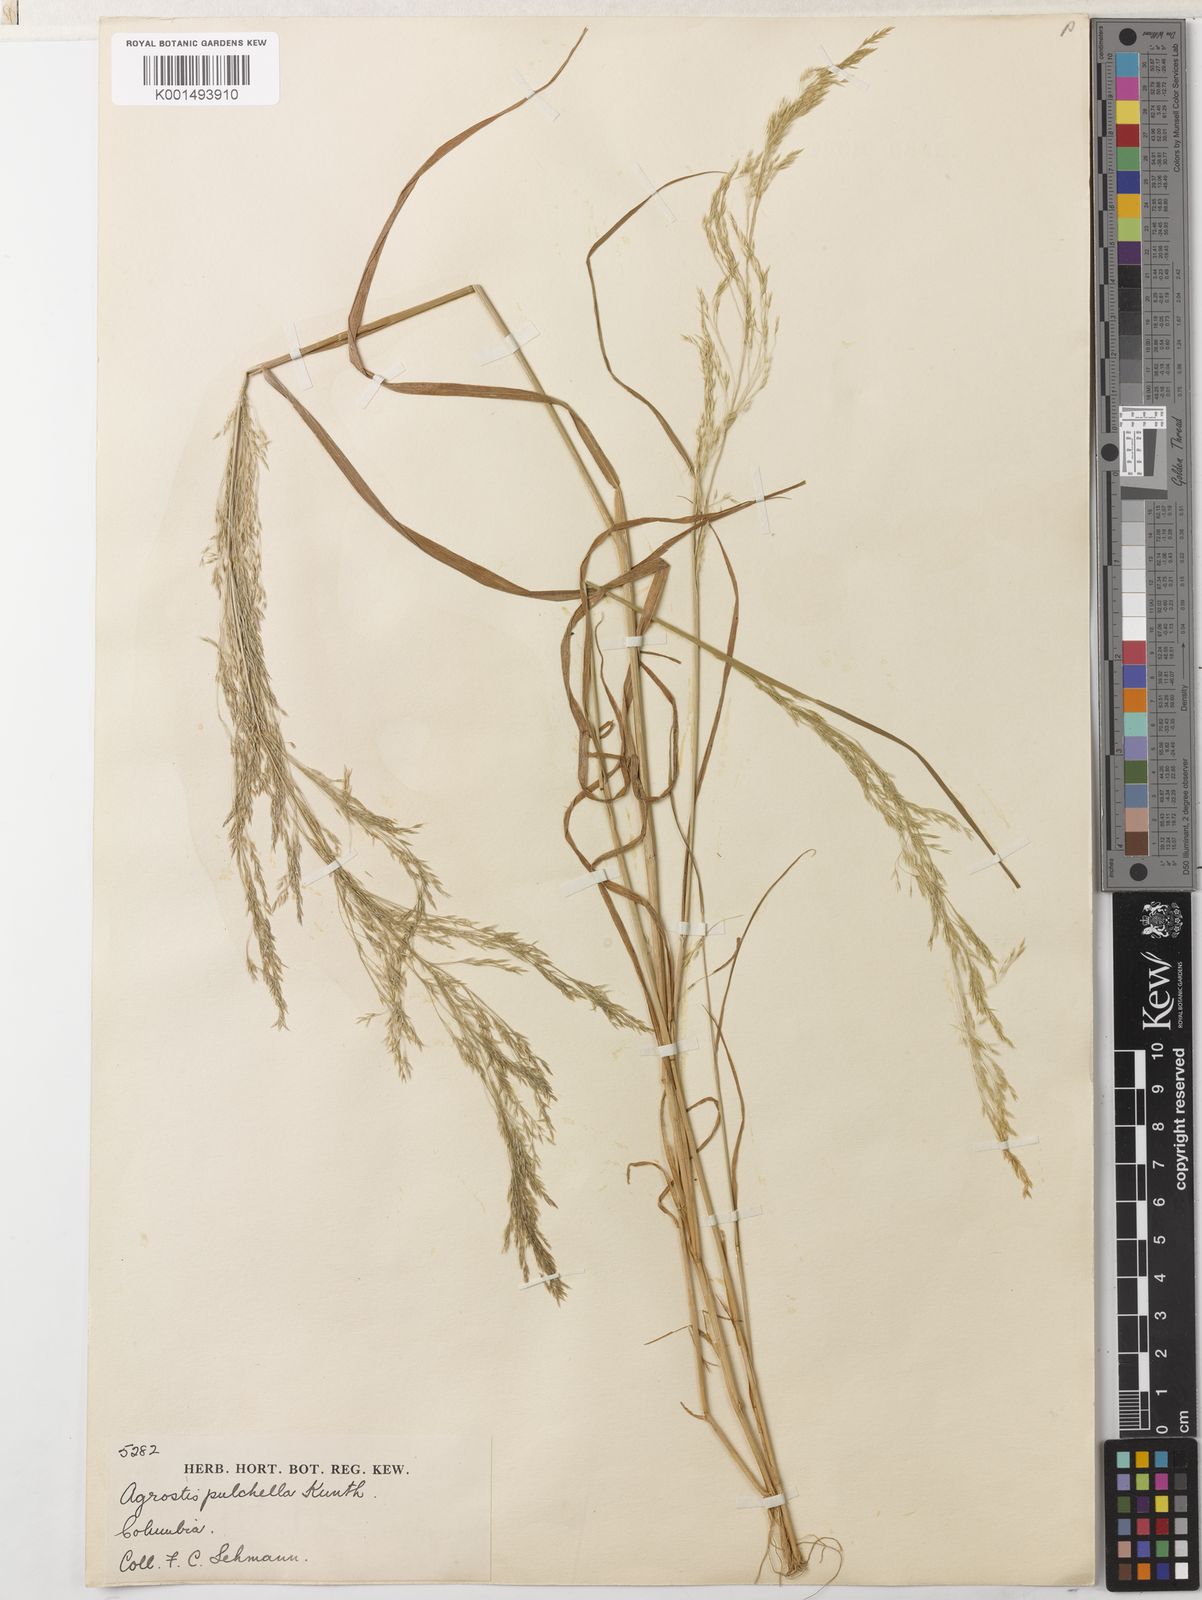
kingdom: Plantae
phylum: Tracheophyta
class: Liliopsida
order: Poales
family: Poaceae
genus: Agrostis
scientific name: Agrostis perennans
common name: Autumn bent
